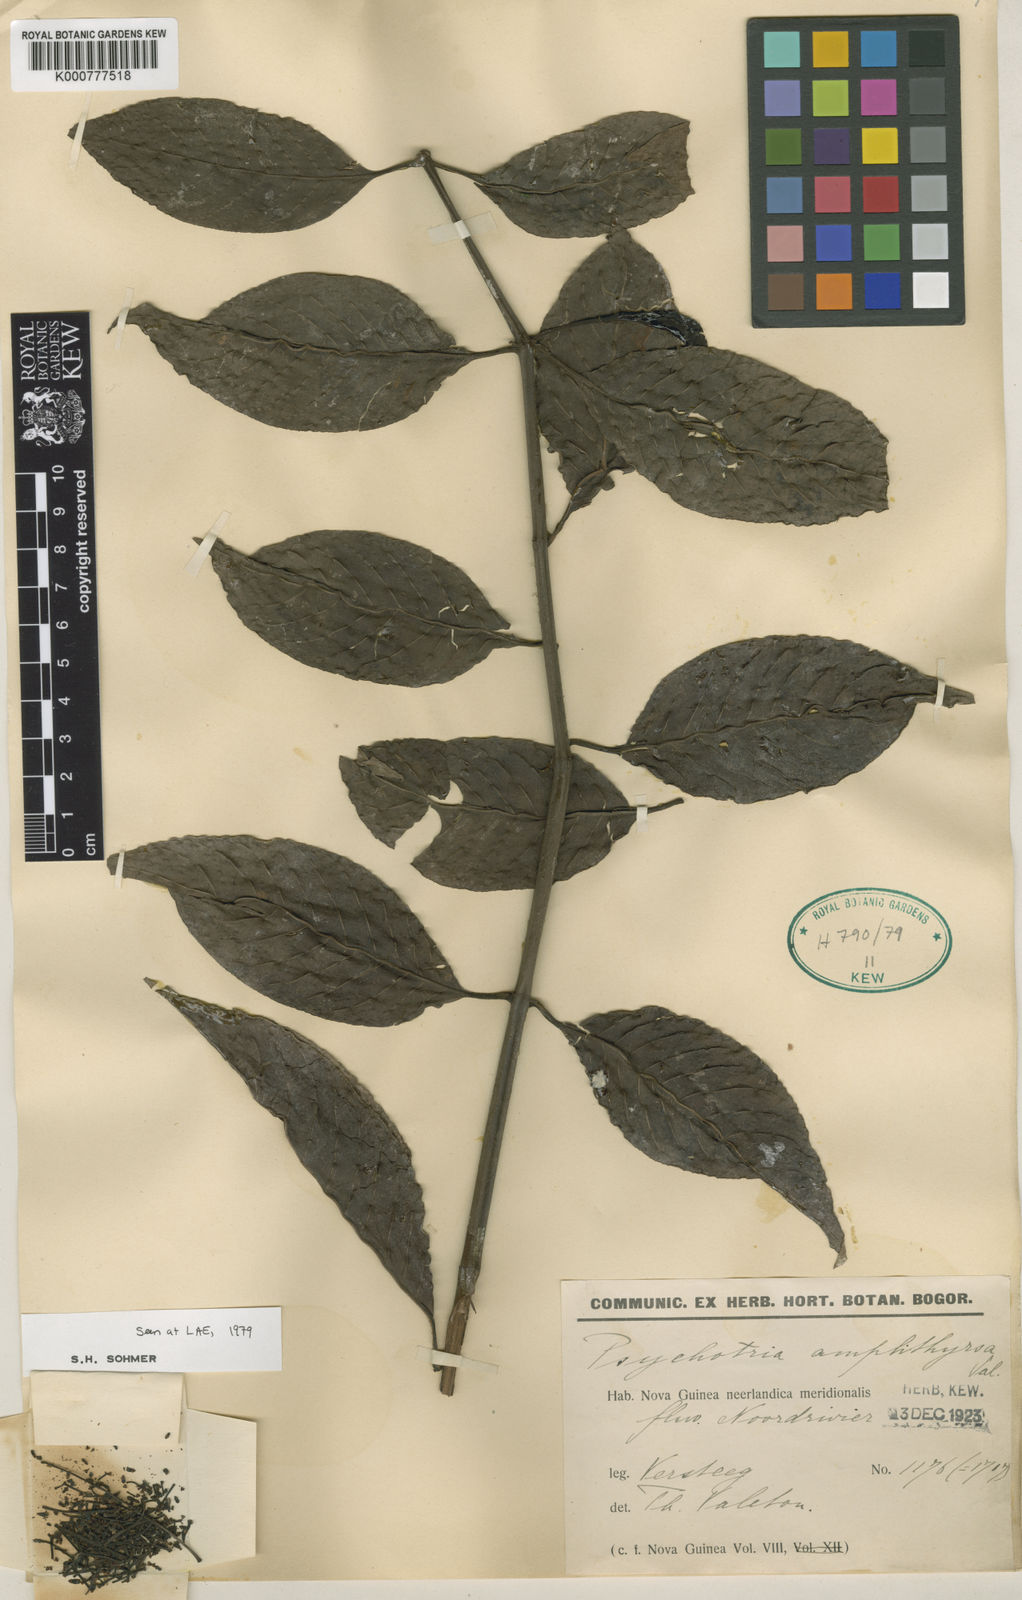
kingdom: Plantae
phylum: Tracheophyta
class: Magnoliopsida
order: Gentianales
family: Rubiaceae
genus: Psychotria
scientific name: Psychotria amplithyrsa
